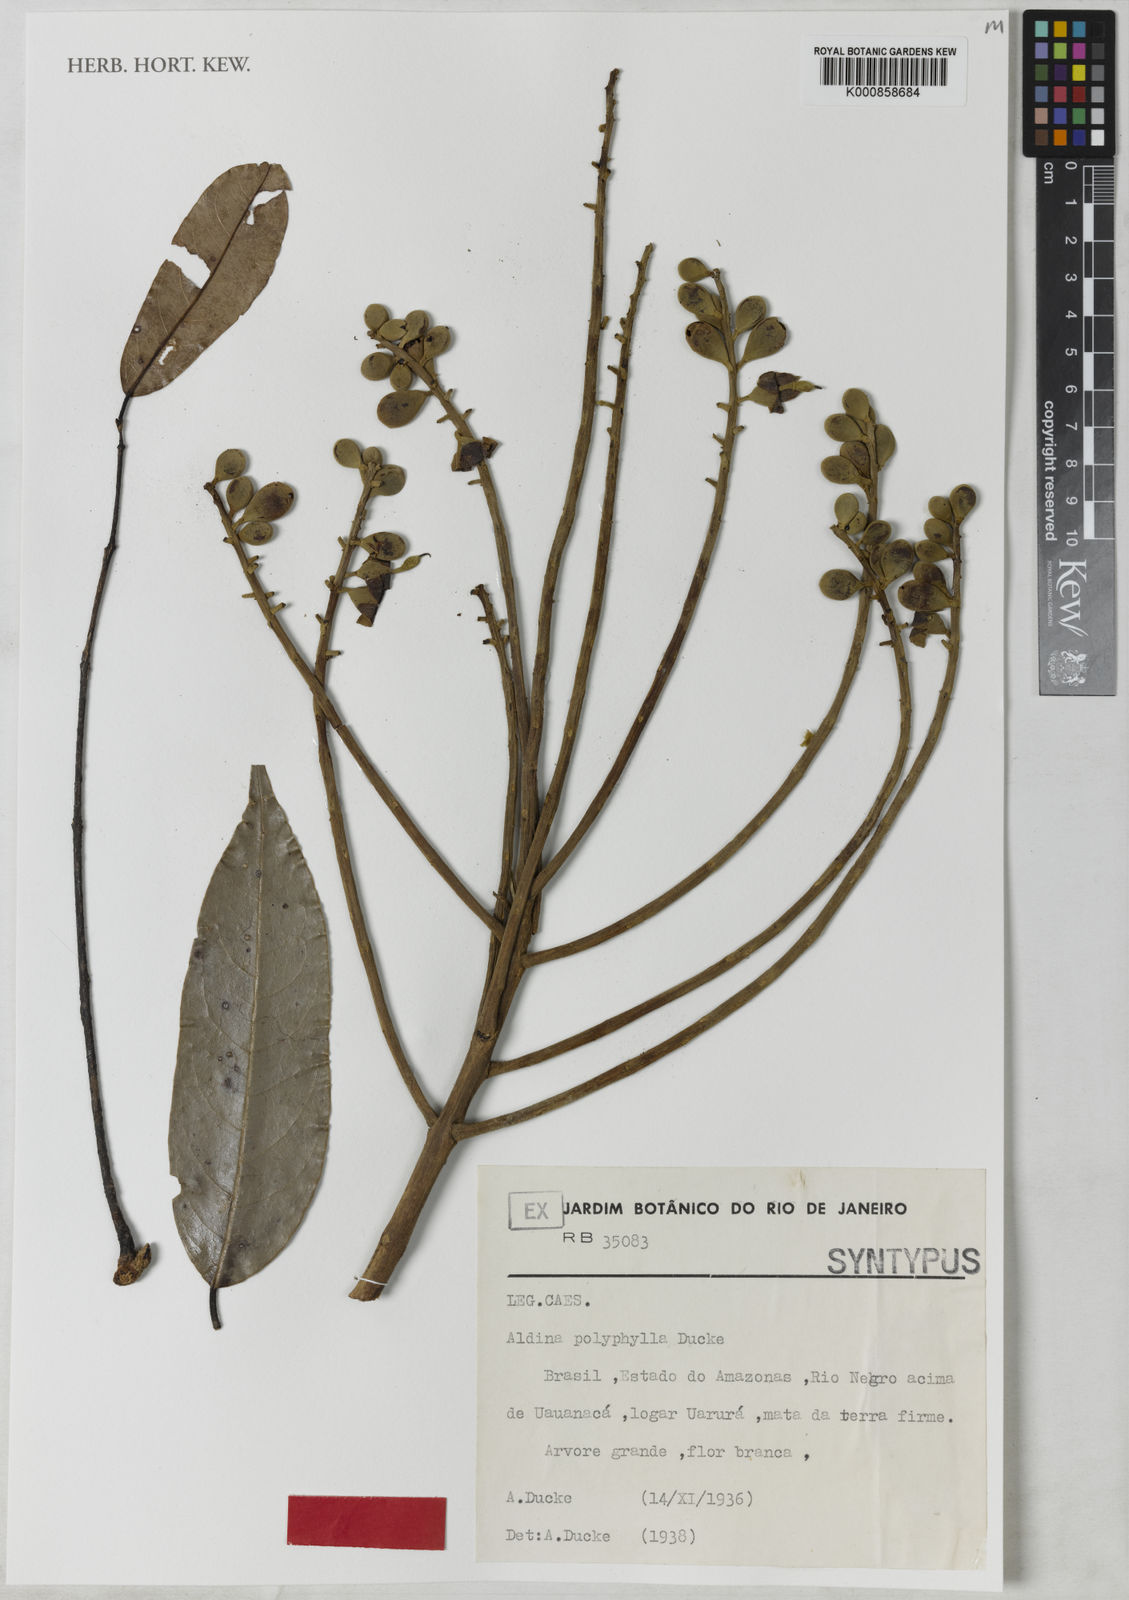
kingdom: Plantae
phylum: Tracheophyta
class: Magnoliopsida
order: Fabales
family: Fabaceae
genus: Aldina
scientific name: Aldina polyphylla
